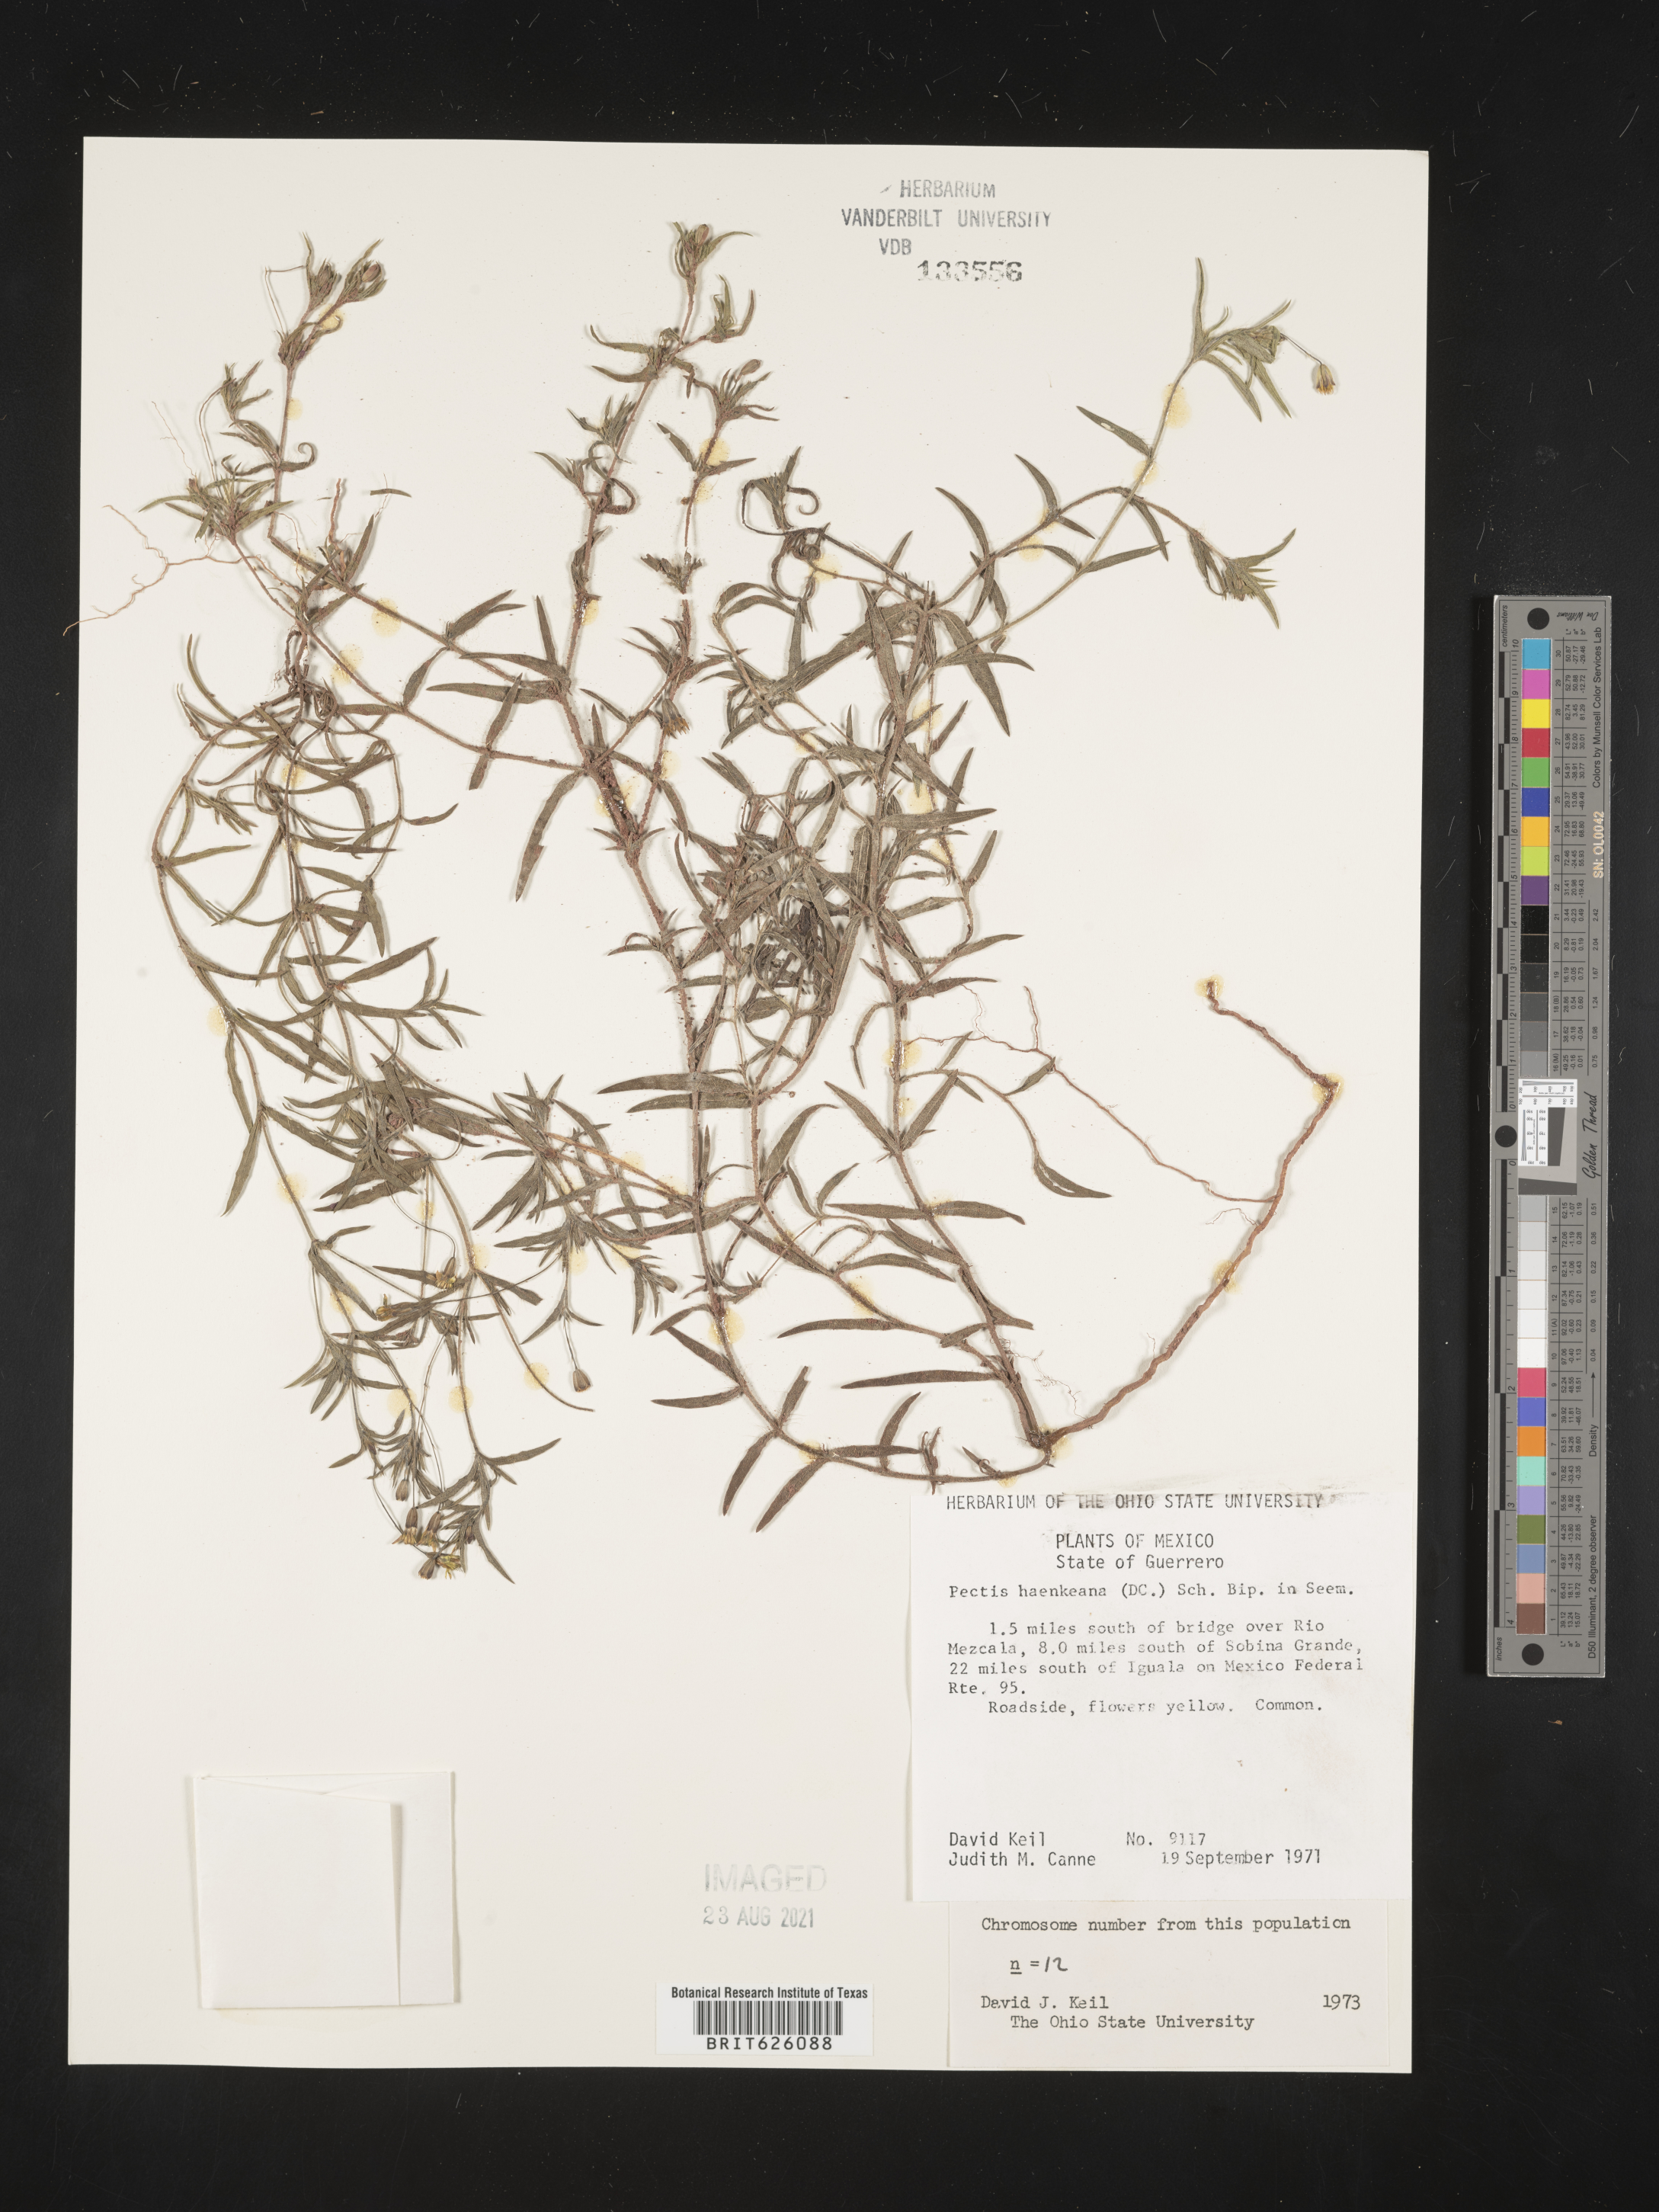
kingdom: Plantae
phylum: Tracheophyta
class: Magnoliopsida
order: Asterales
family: Asteraceae
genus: Pectis
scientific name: Pectis
